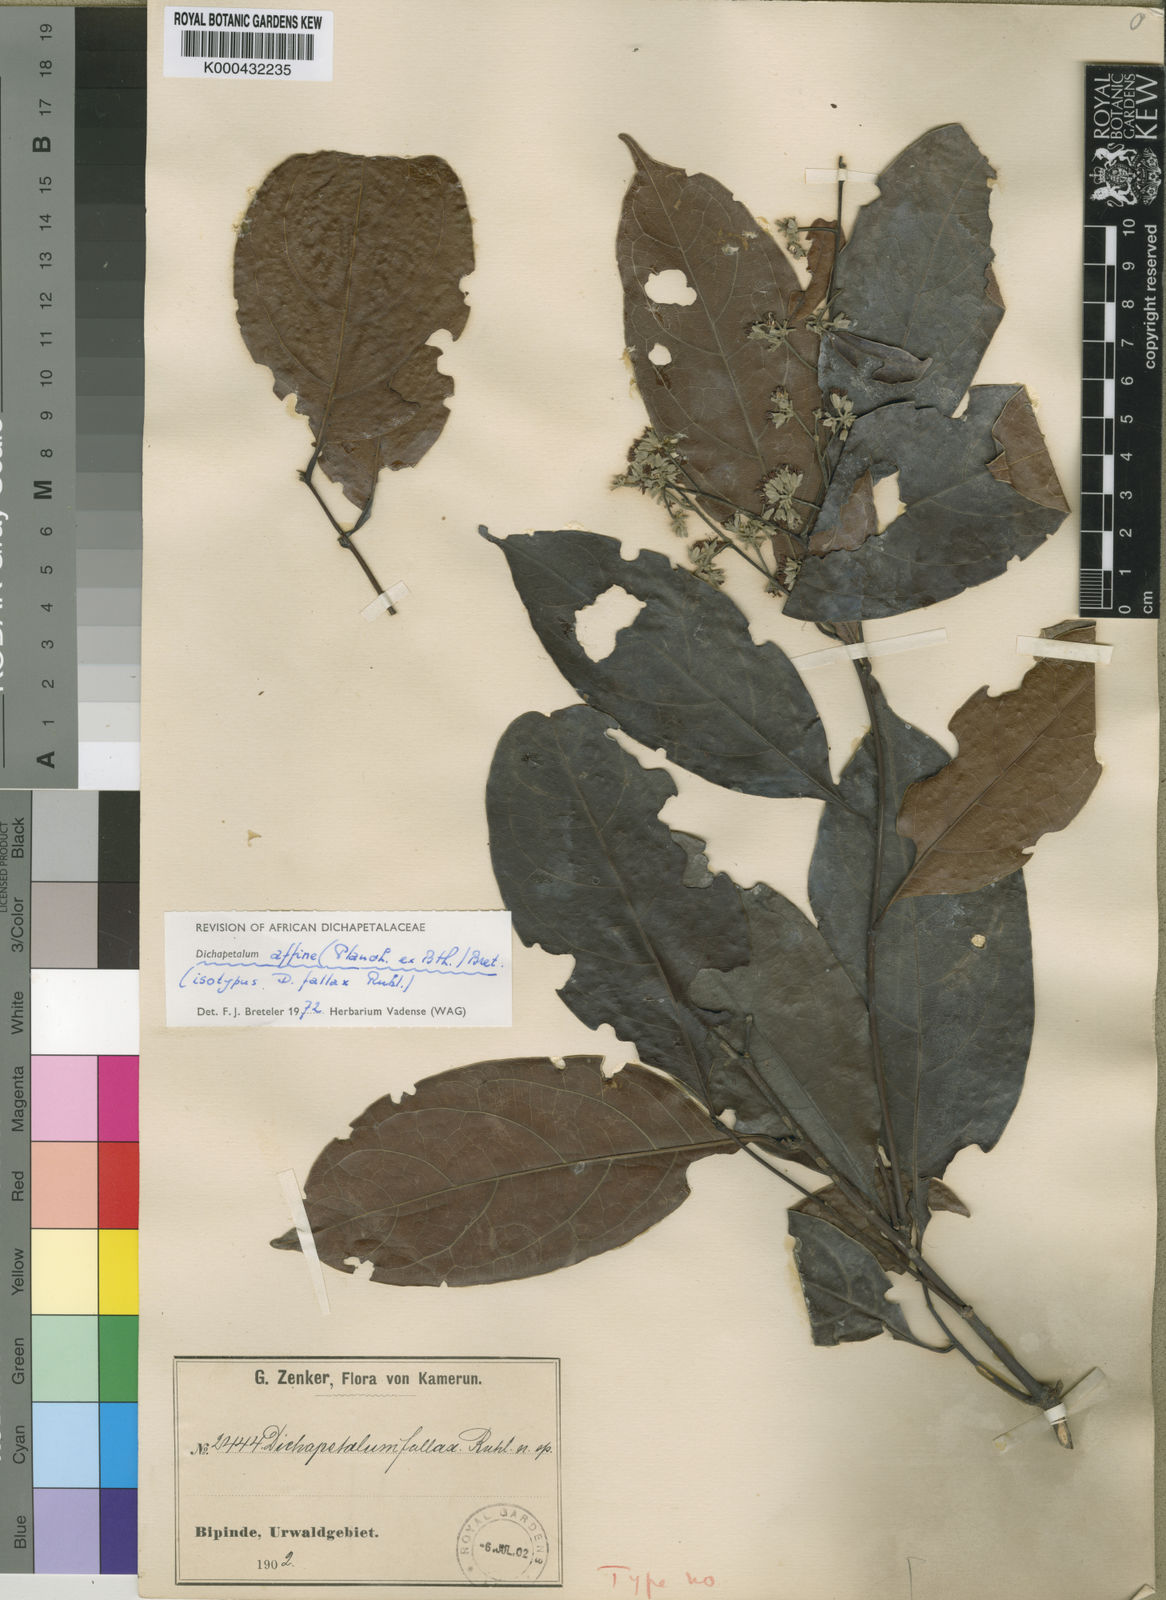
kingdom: Plantae
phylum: Tracheophyta
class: Magnoliopsida
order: Malpighiales
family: Dichapetalaceae
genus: Dichapetalum
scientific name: Dichapetalum affine
